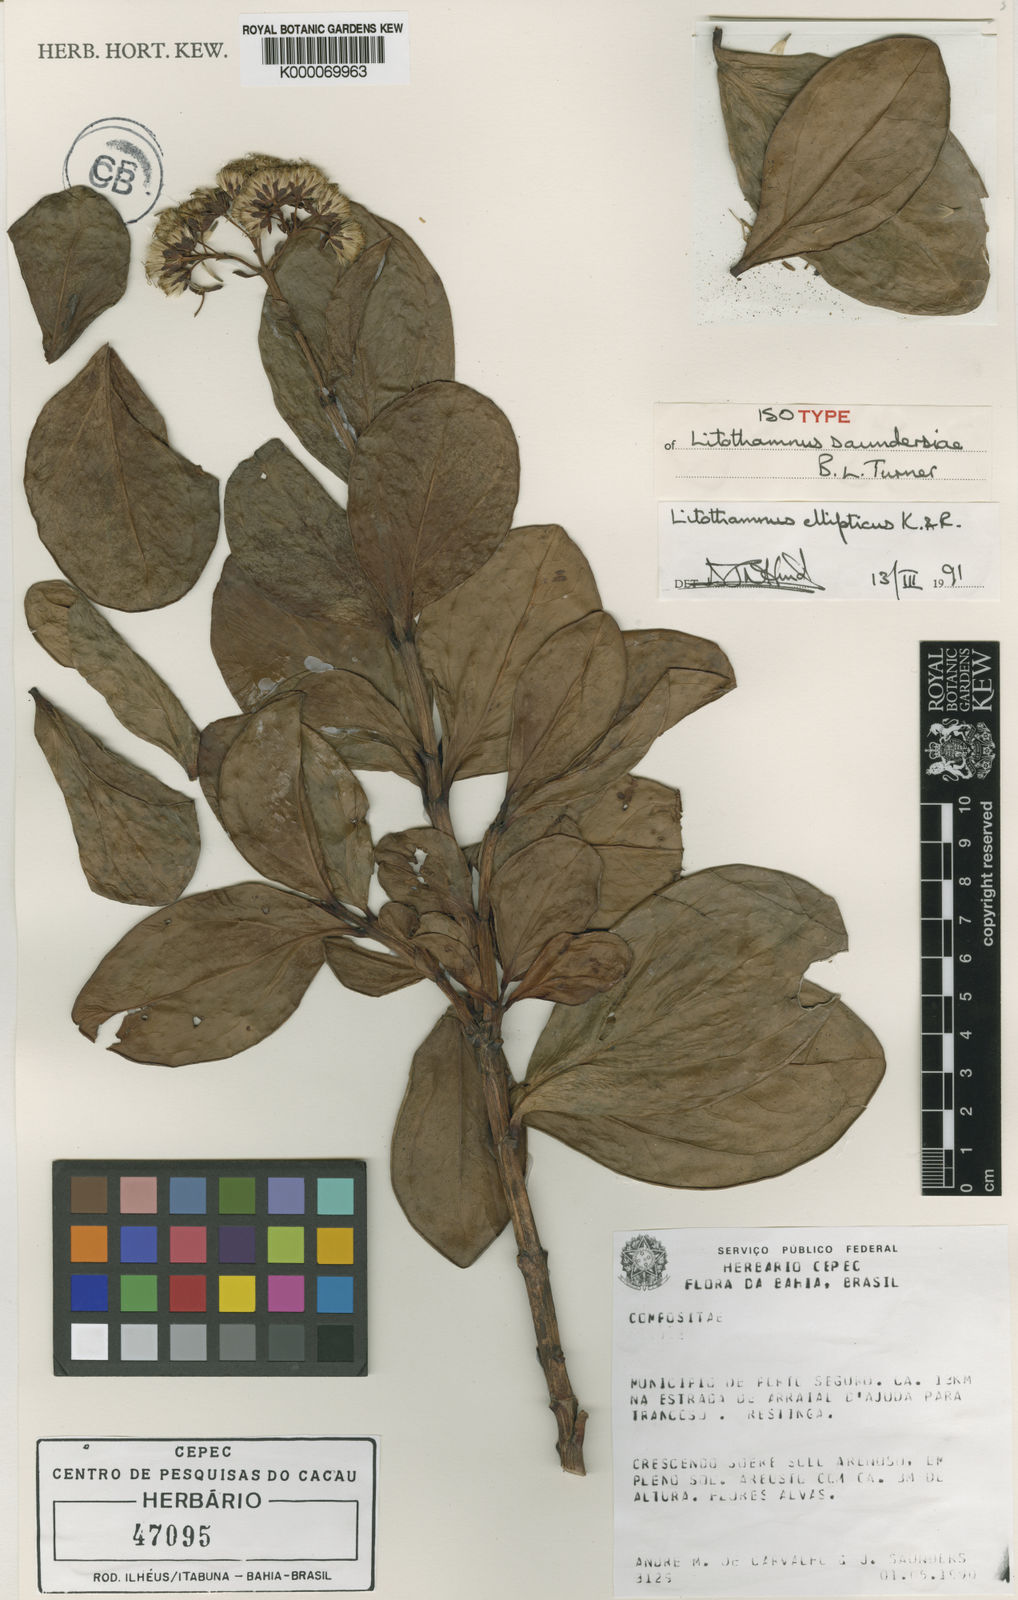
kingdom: Plantae
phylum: Tracheophyta
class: Magnoliopsida
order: Asterales
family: Asteraceae
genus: Litothamnus
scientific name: Litothamnus ellipticus
